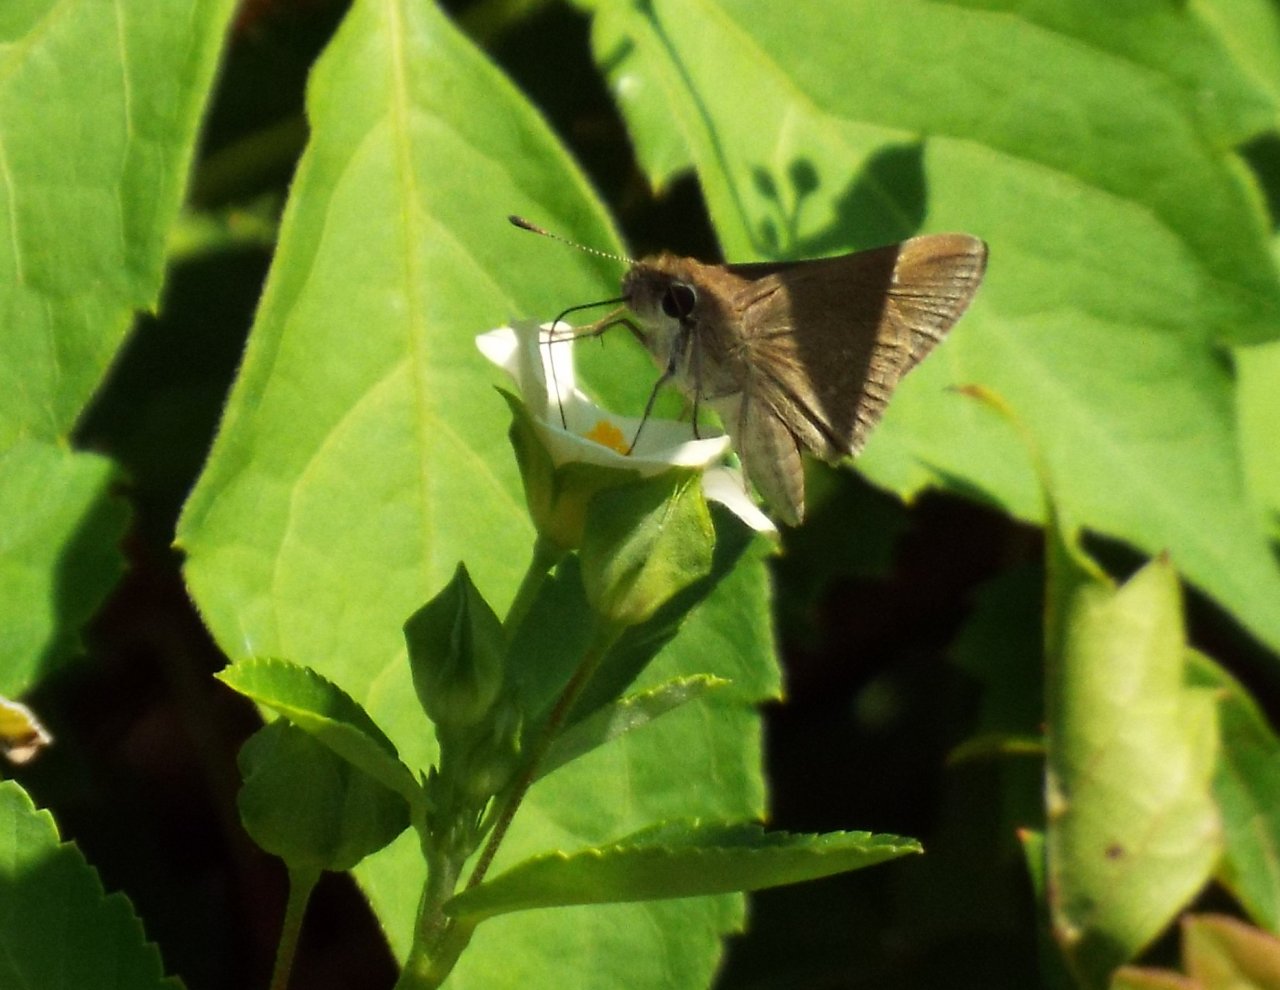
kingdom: Animalia
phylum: Arthropoda
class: Insecta
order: Lepidoptera
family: Hesperiidae
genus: Lerodea
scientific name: Lerodea eufala
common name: Eufala Skipper
